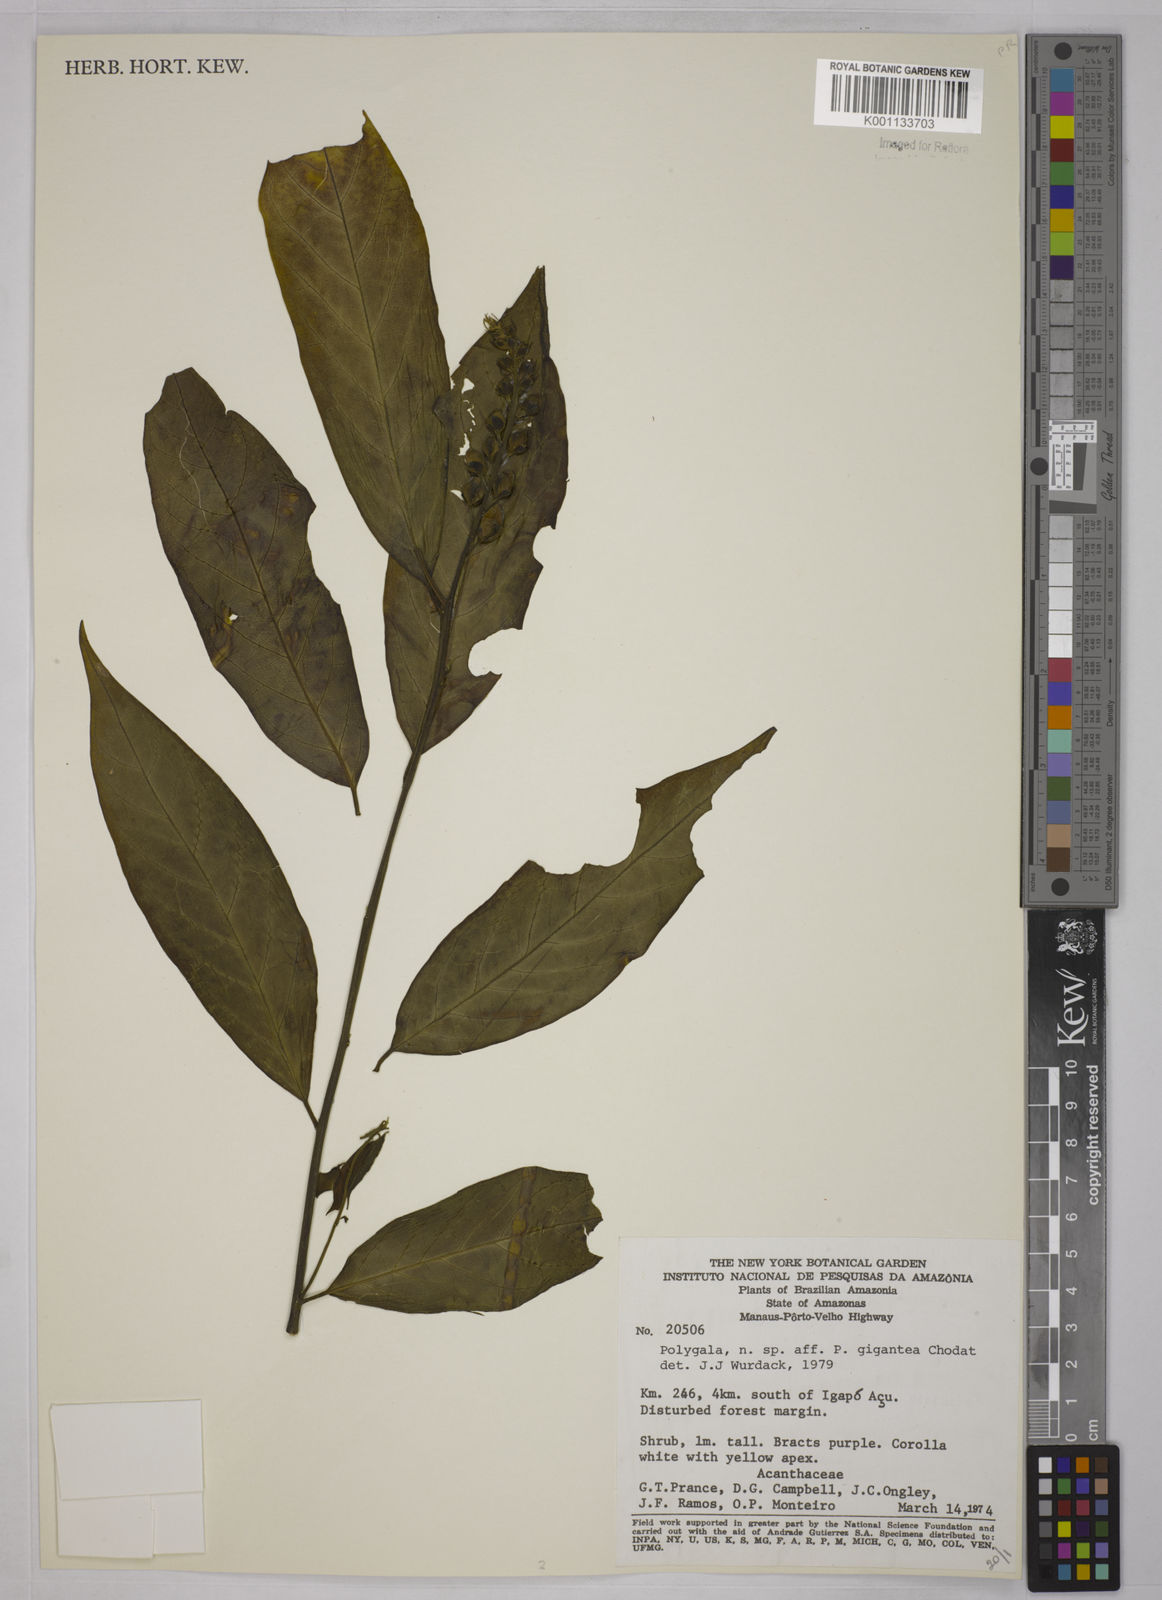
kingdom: Plantae
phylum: Tracheophyta
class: Magnoliopsida
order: Fabales
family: Polygalaceae
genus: Caamembeca
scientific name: Caamembeca gigantea
